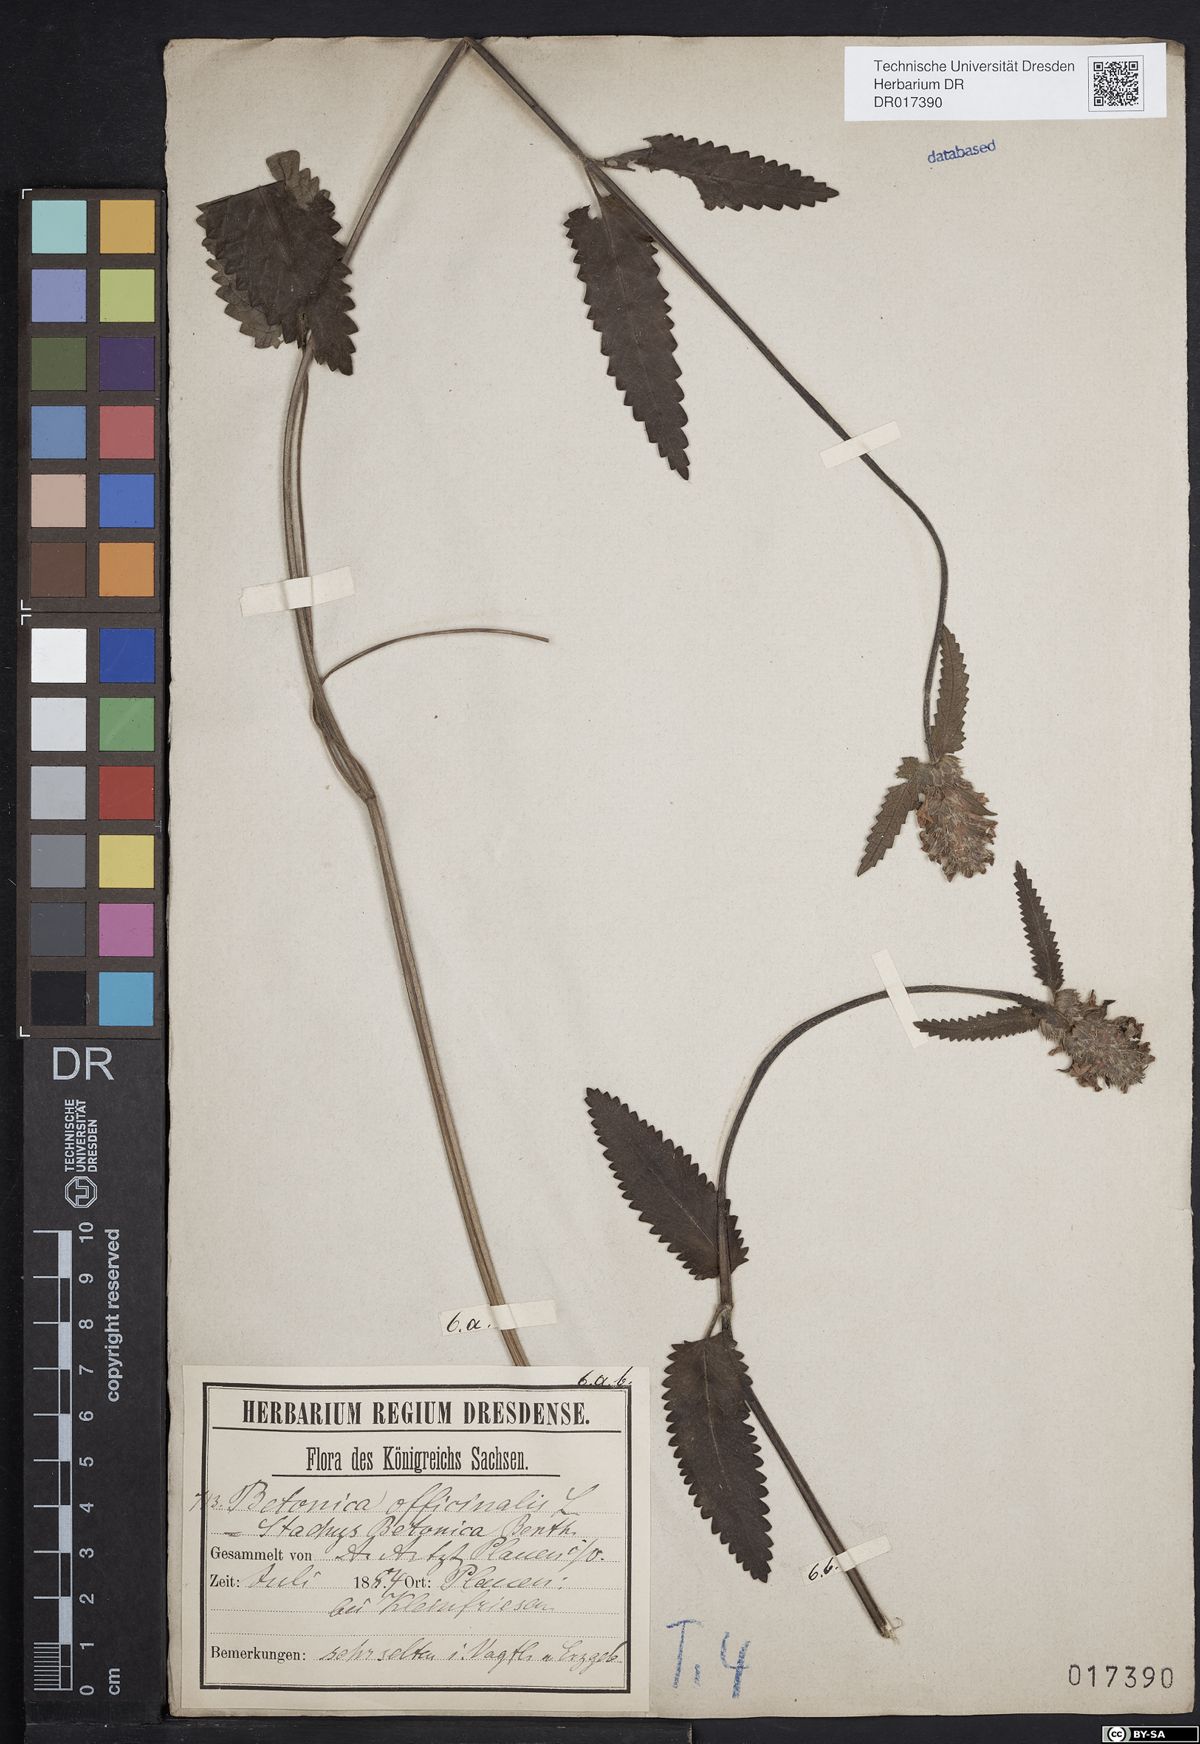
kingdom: Plantae
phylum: Tracheophyta
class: Magnoliopsida
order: Lamiales
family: Lamiaceae
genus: Betonica
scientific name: Betonica officinalis
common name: Bishop's-wort
